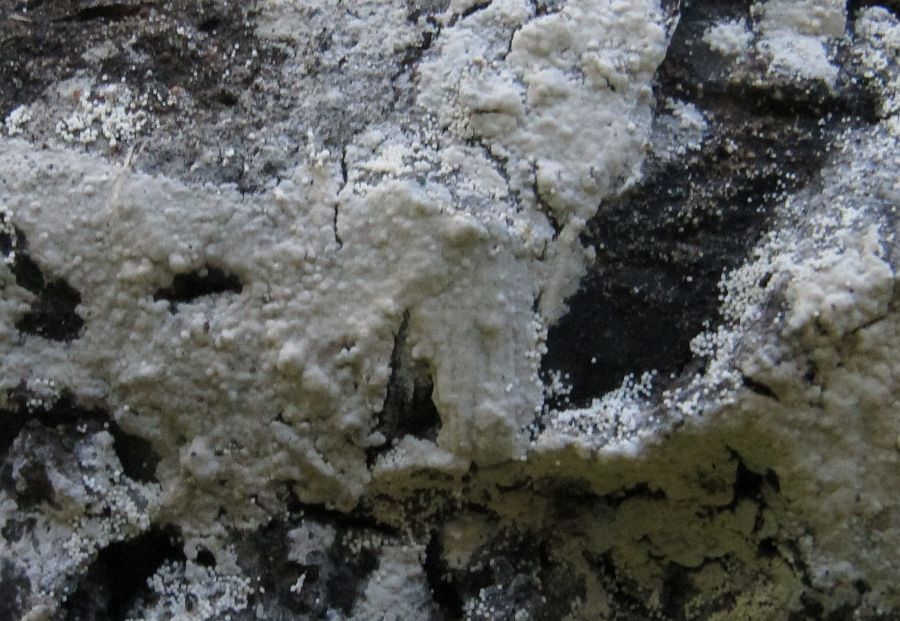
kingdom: Fungi
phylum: Basidiomycota
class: Agaricomycetes
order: Polyporales
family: Meruliaceae
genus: Bulbillomyces
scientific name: Bulbillomyces farinosus
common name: æg-kalkskind
